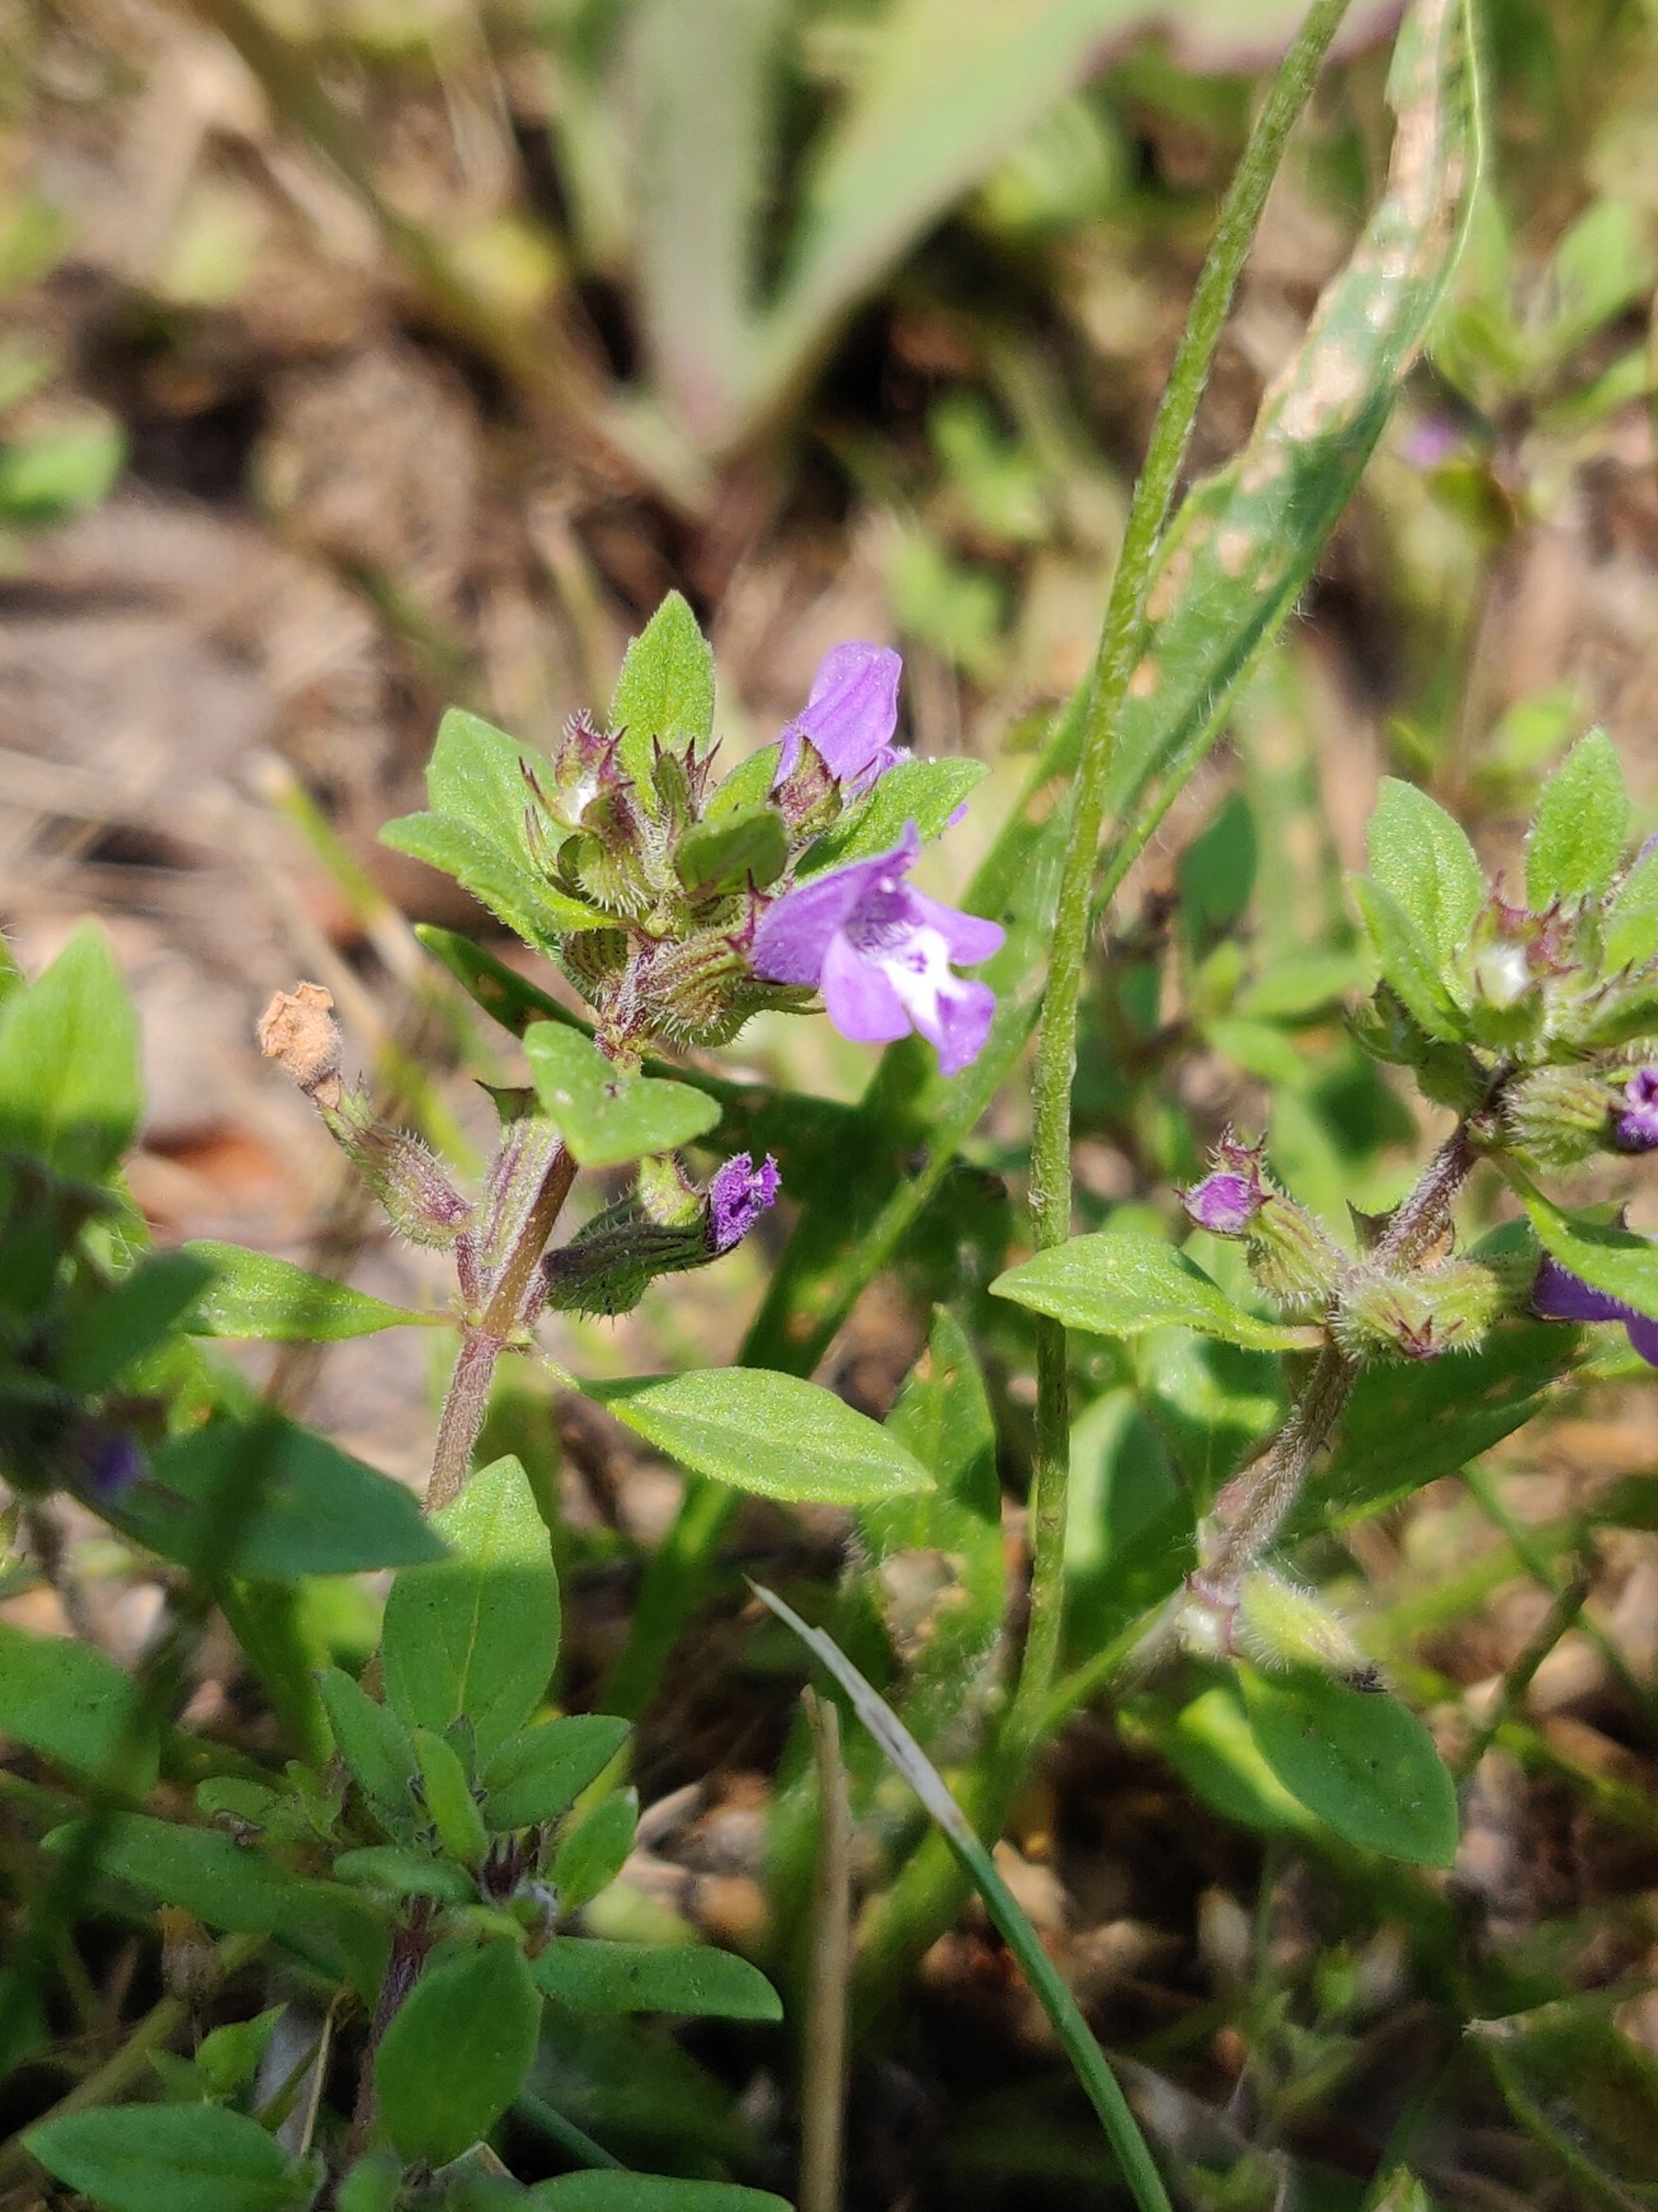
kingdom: Plantae
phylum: Tracheophyta
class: Magnoliopsida
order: Lamiales
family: Lamiaceae
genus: Clinopodium
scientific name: Clinopodium acinos
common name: Voldtimian
